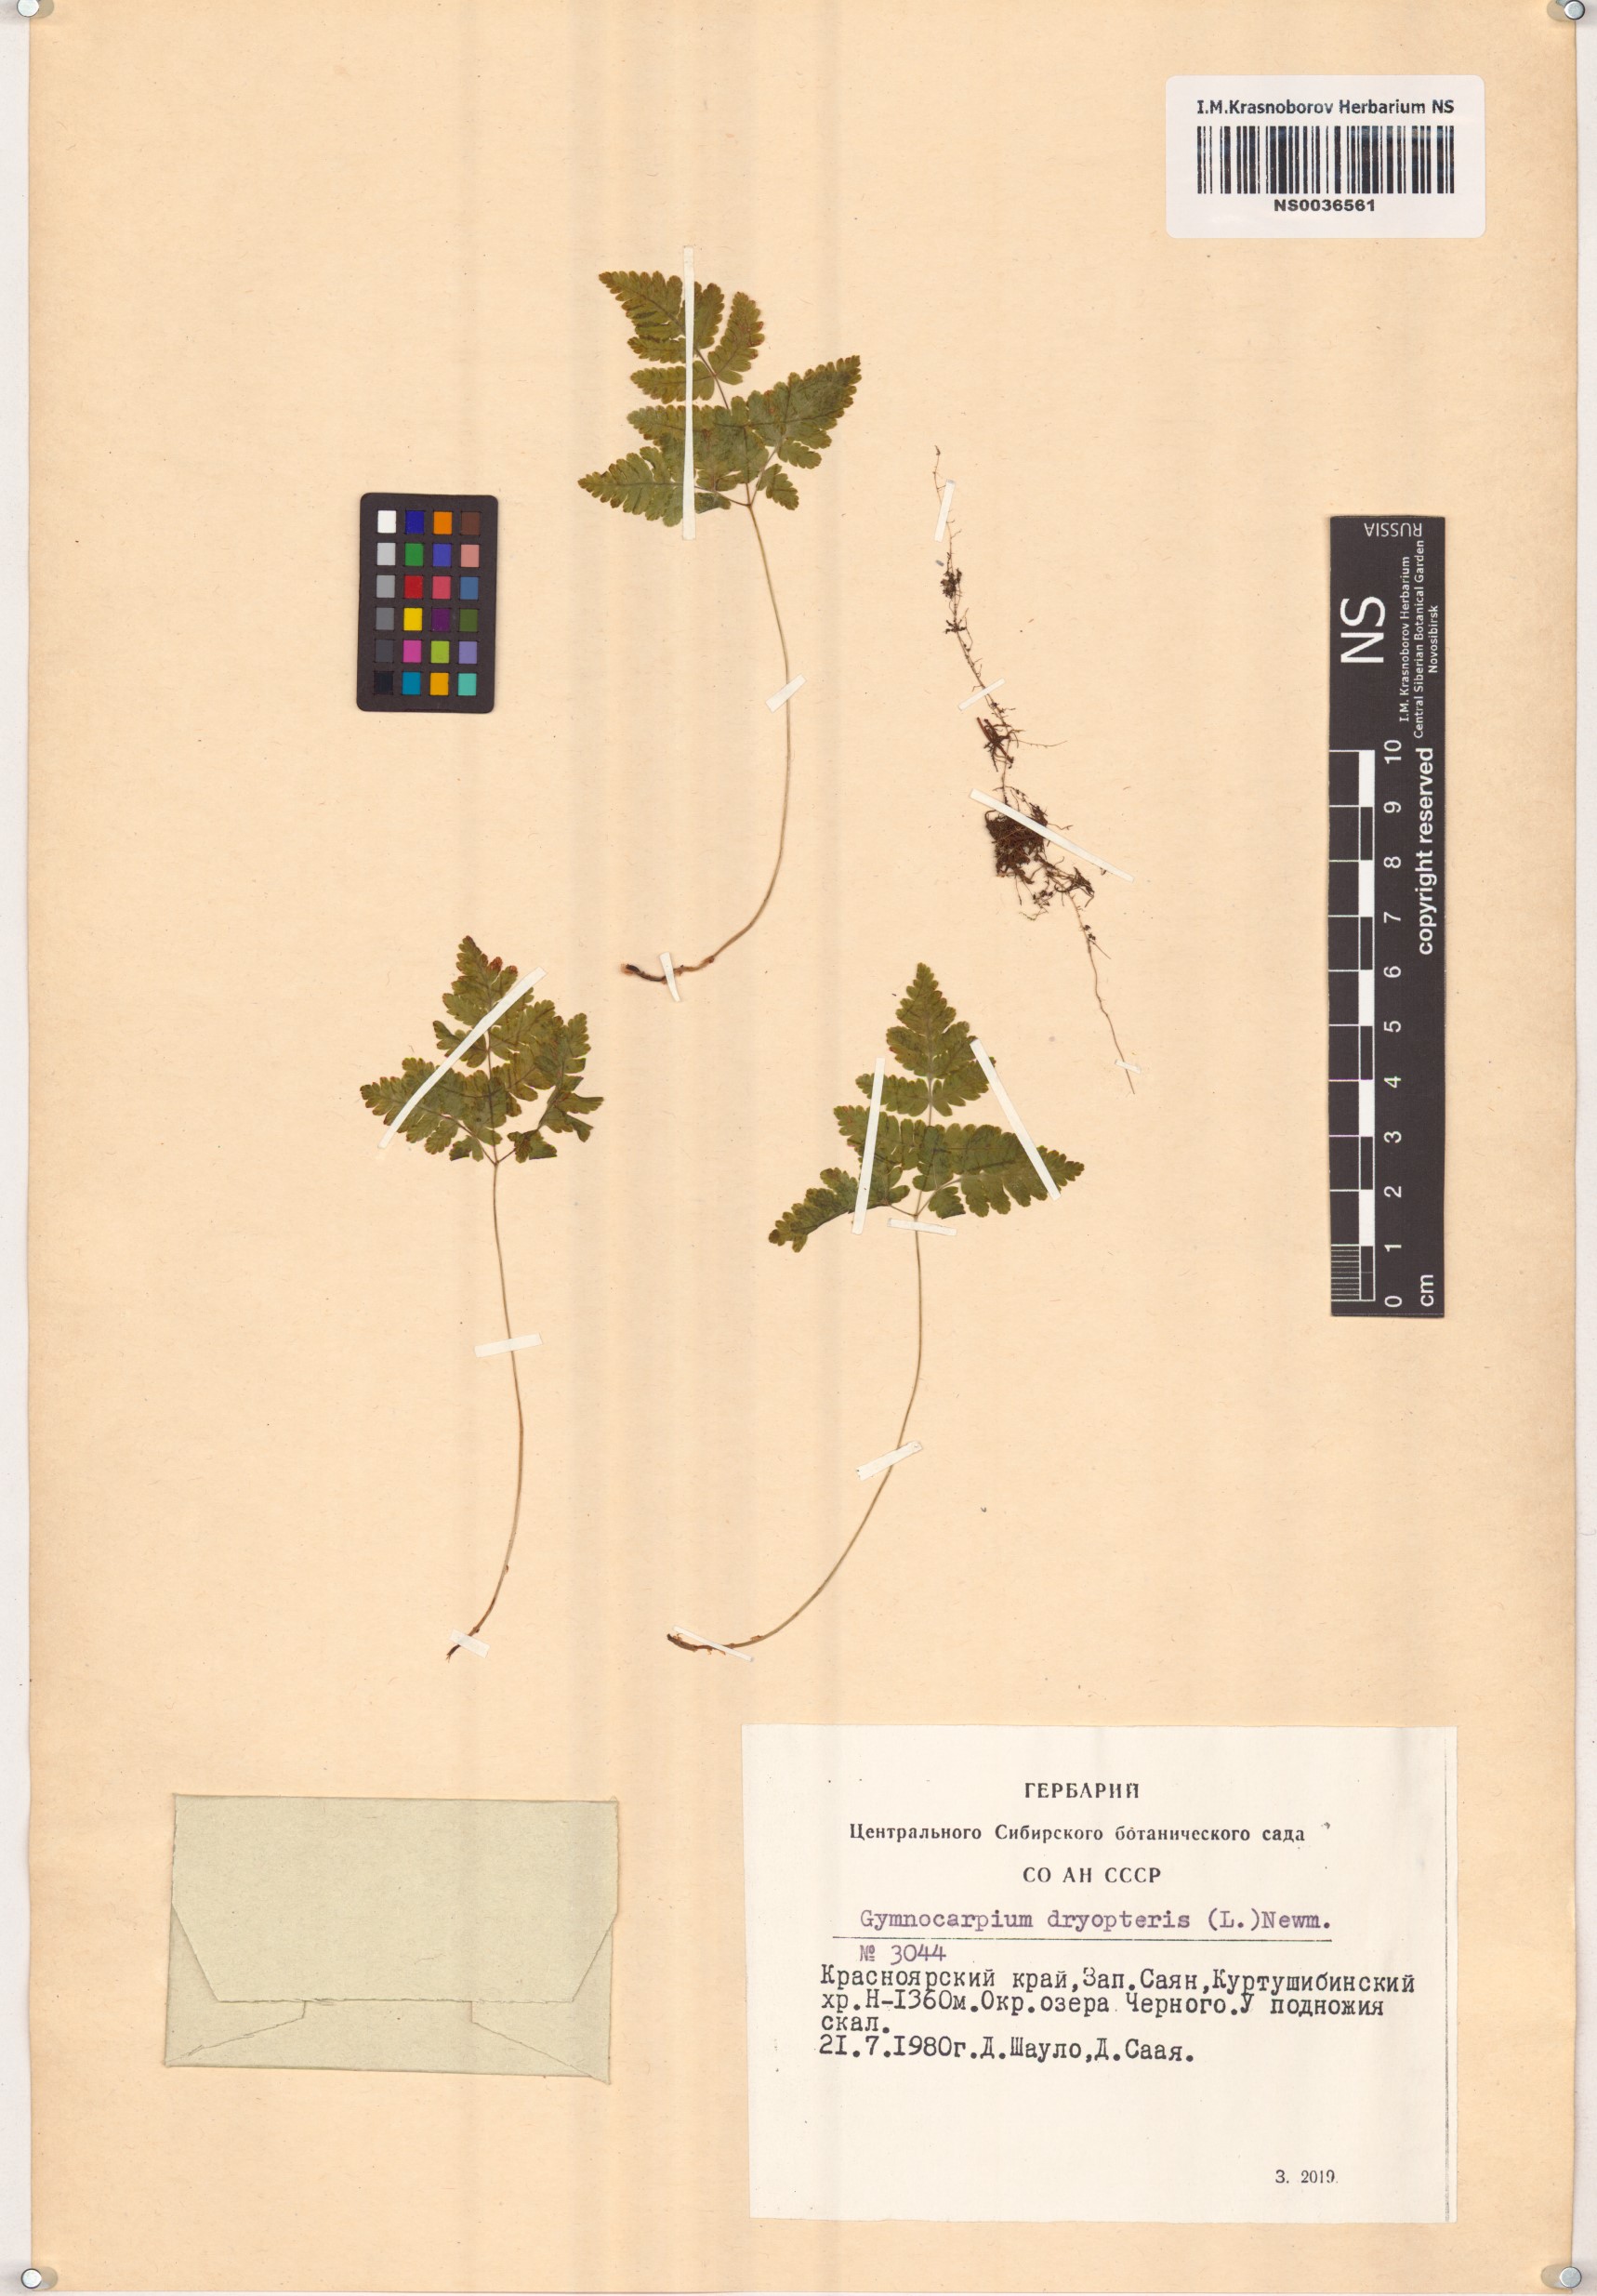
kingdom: Plantae
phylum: Tracheophyta
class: Polypodiopsida
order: Polypodiales
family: Cystopteridaceae
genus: Gymnocarpium
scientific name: Gymnocarpium dryopteris
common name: Oak fern
